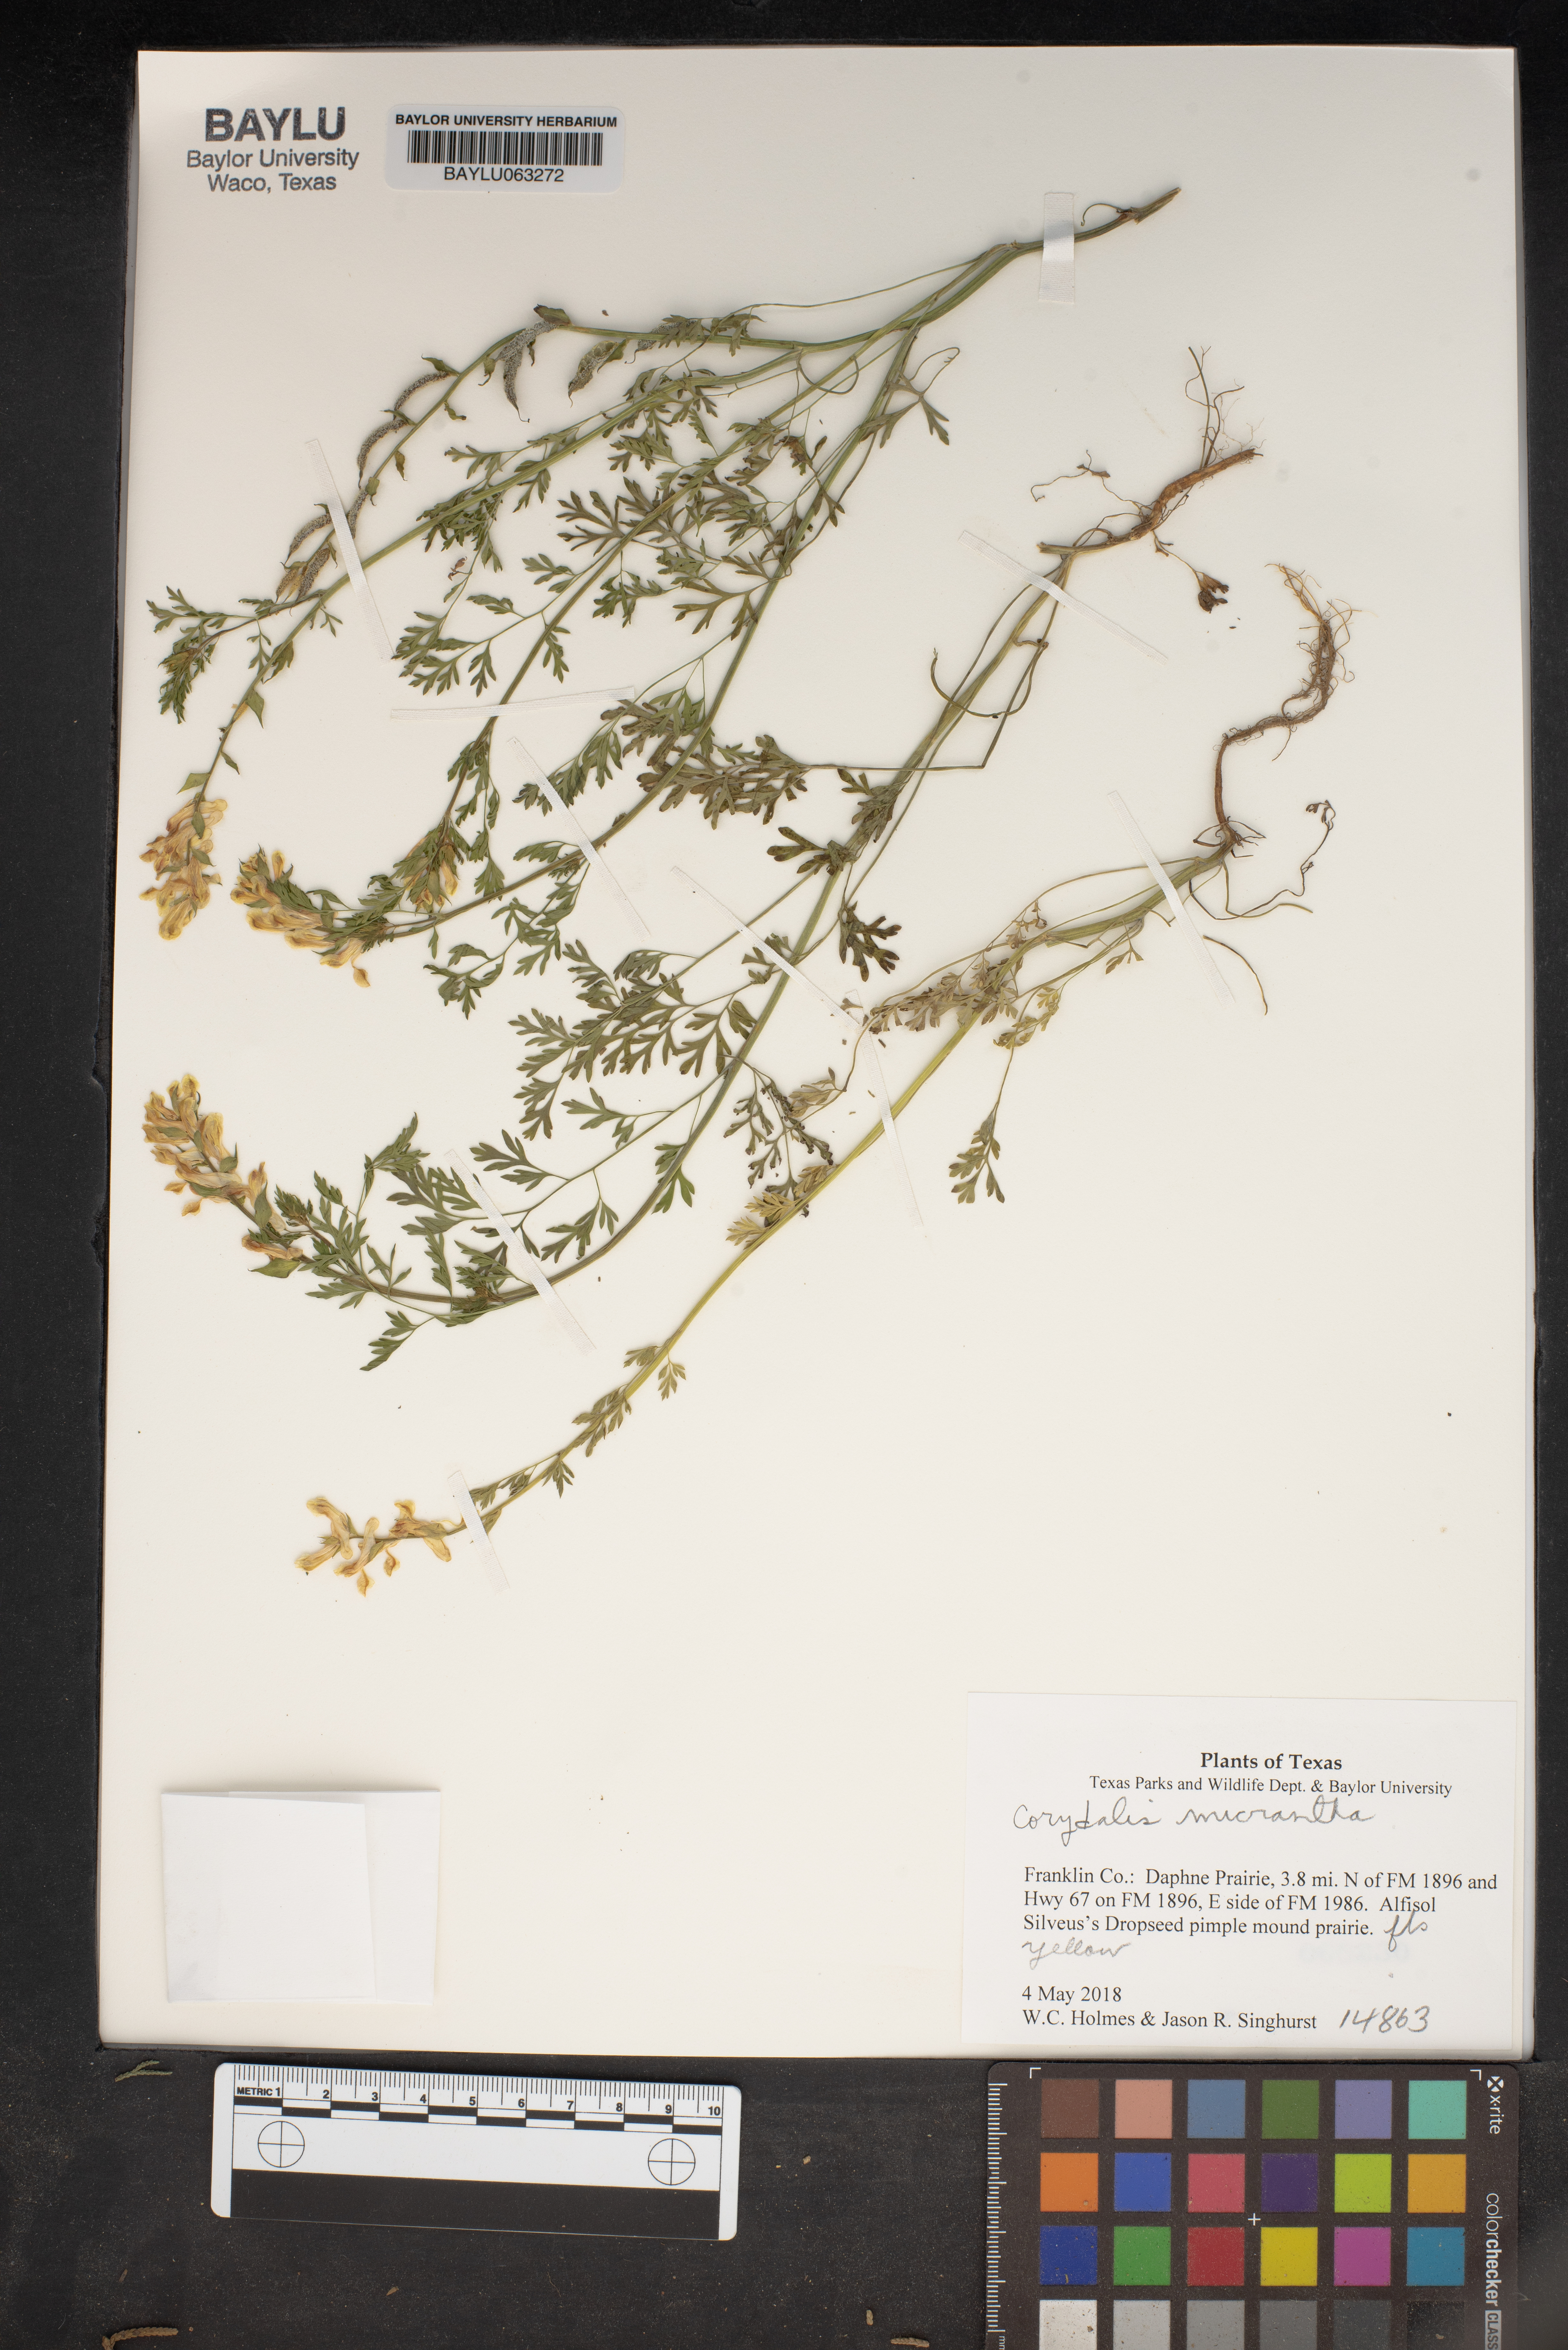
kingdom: Plantae
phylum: Tracheophyta
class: Magnoliopsida
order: Ranunculales
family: Papaveraceae
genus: Corydalis
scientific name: Corydalis micrantha
